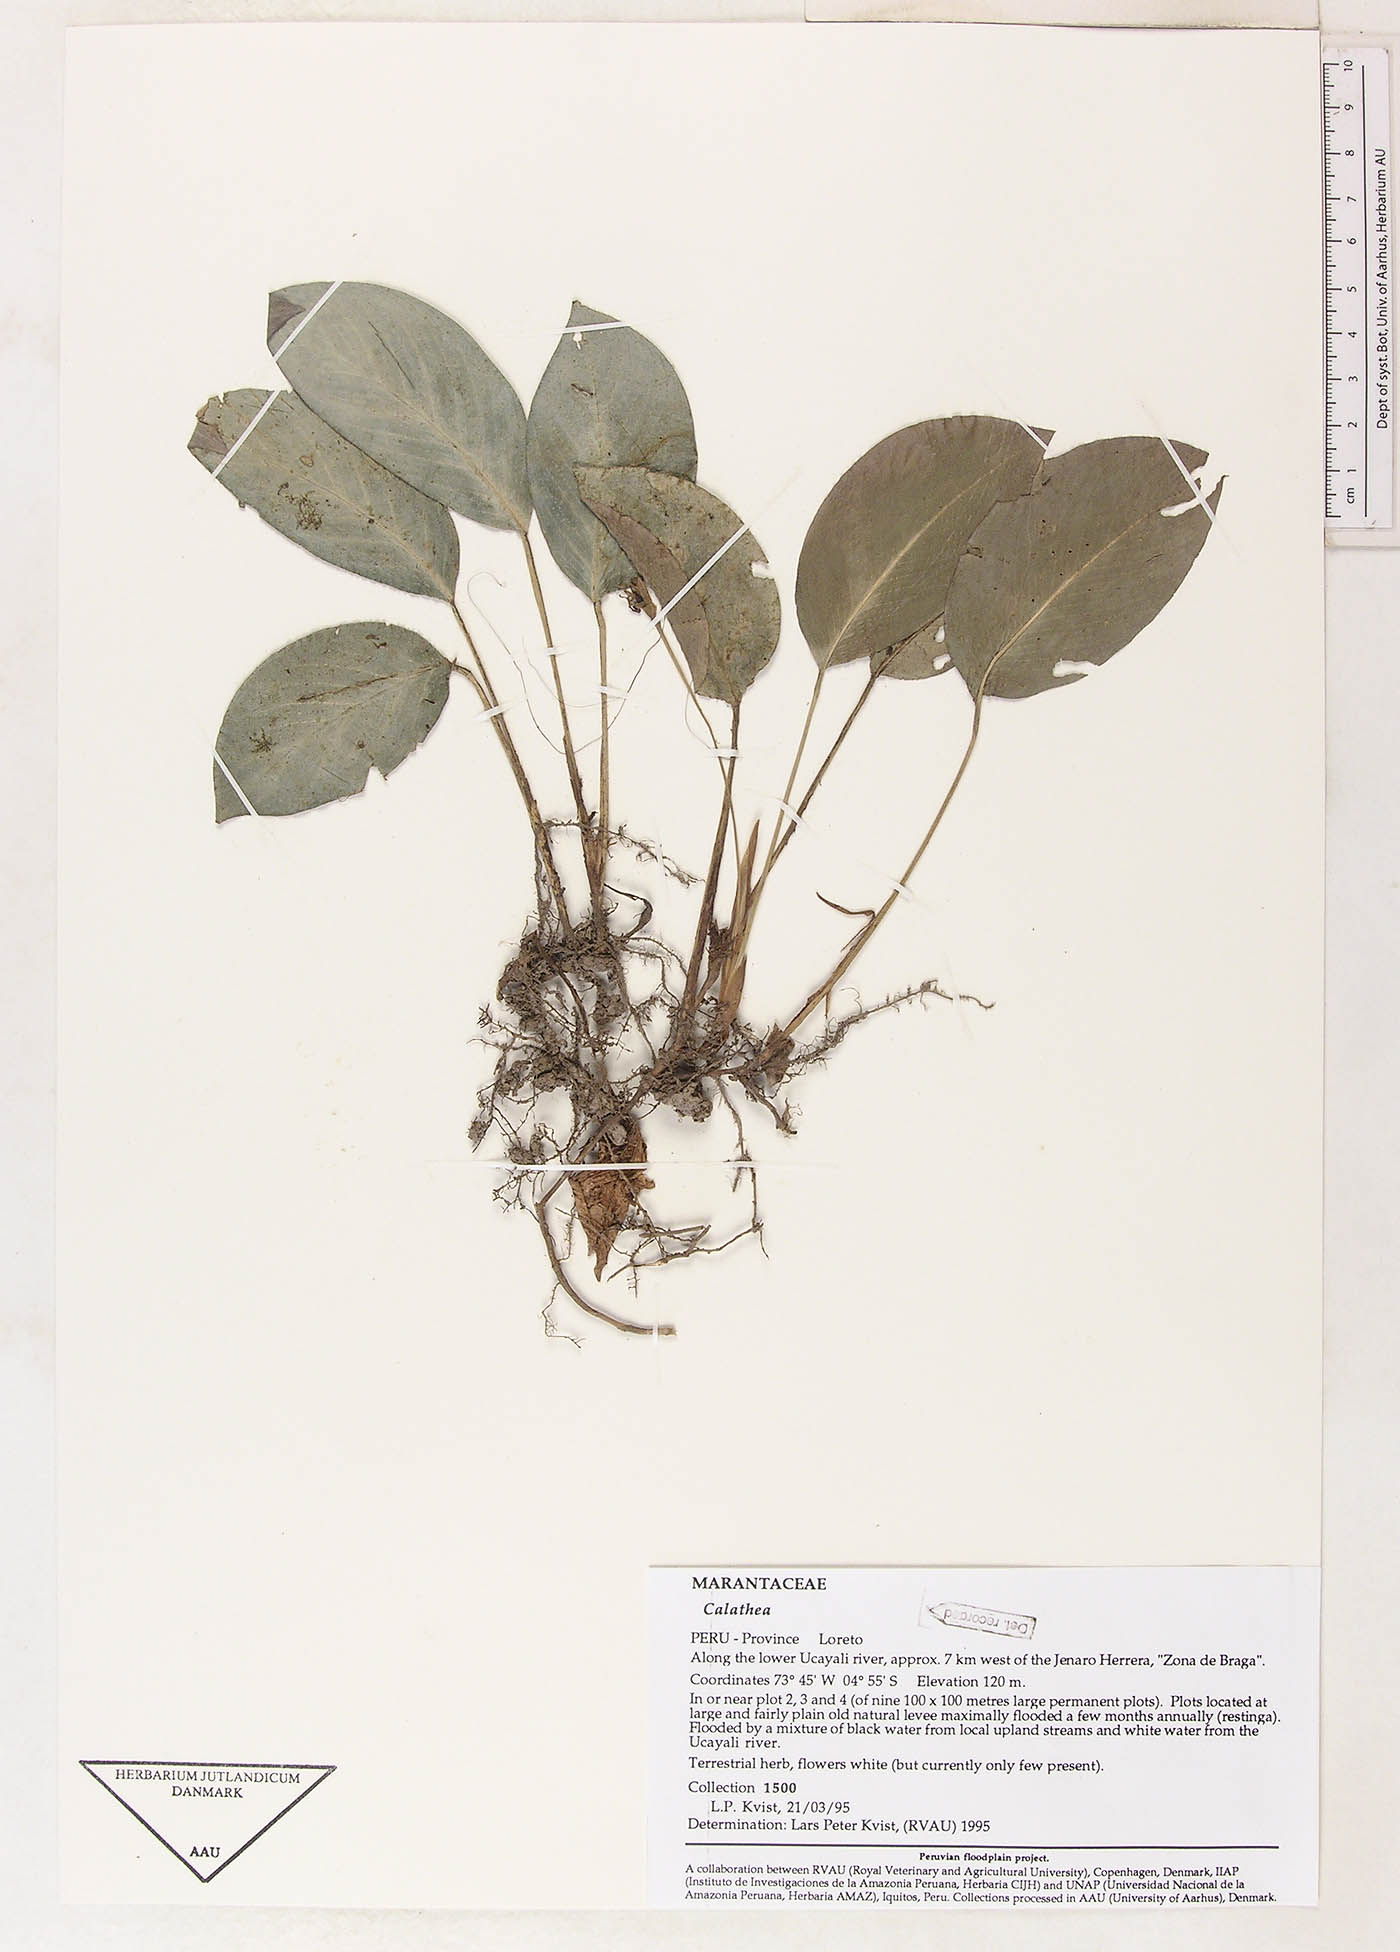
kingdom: Plantae
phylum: Tracheophyta
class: Magnoliopsida
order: Laurales
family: Lauraceae
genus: Goeppertia
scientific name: Goeppertia
